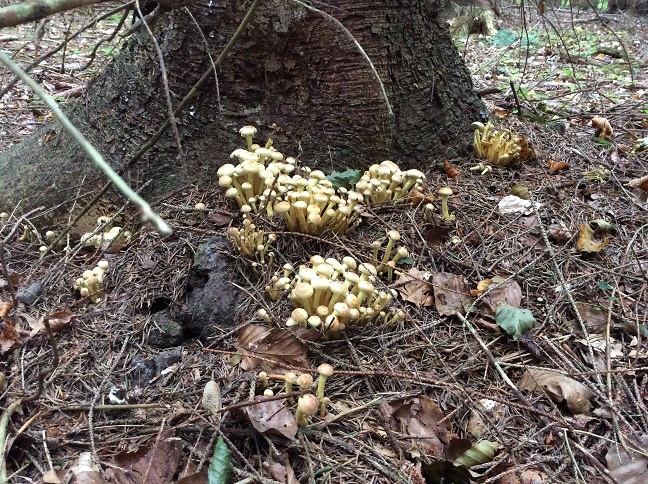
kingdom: Fungi
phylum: Basidiomycota
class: Agaricomycetes
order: Agaricales
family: Strophariaceae
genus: Hypholoma
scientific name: Hypholoma fasciculare
